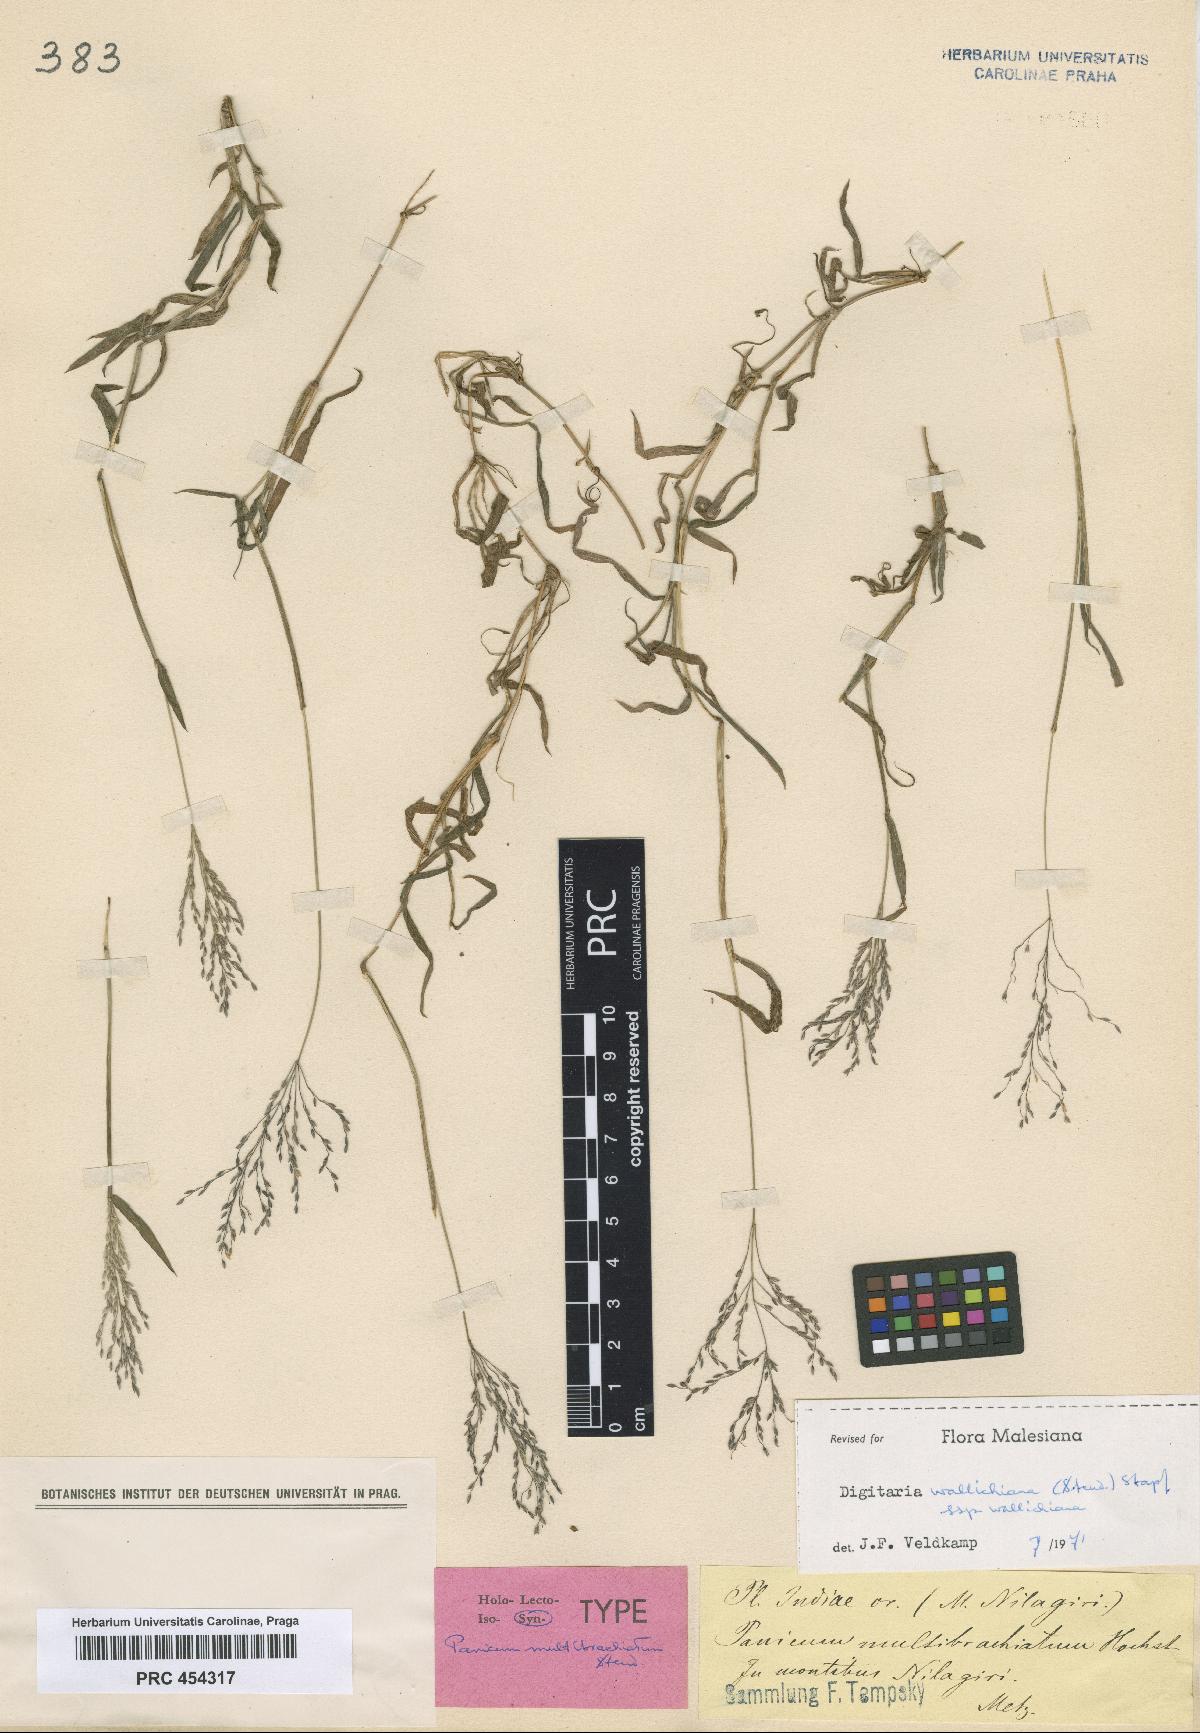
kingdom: Plantae
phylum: Tracheophyta
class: Liliopsida
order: Poales
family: Poaceae
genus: Digitaria
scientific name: Digitaria wallichiana
